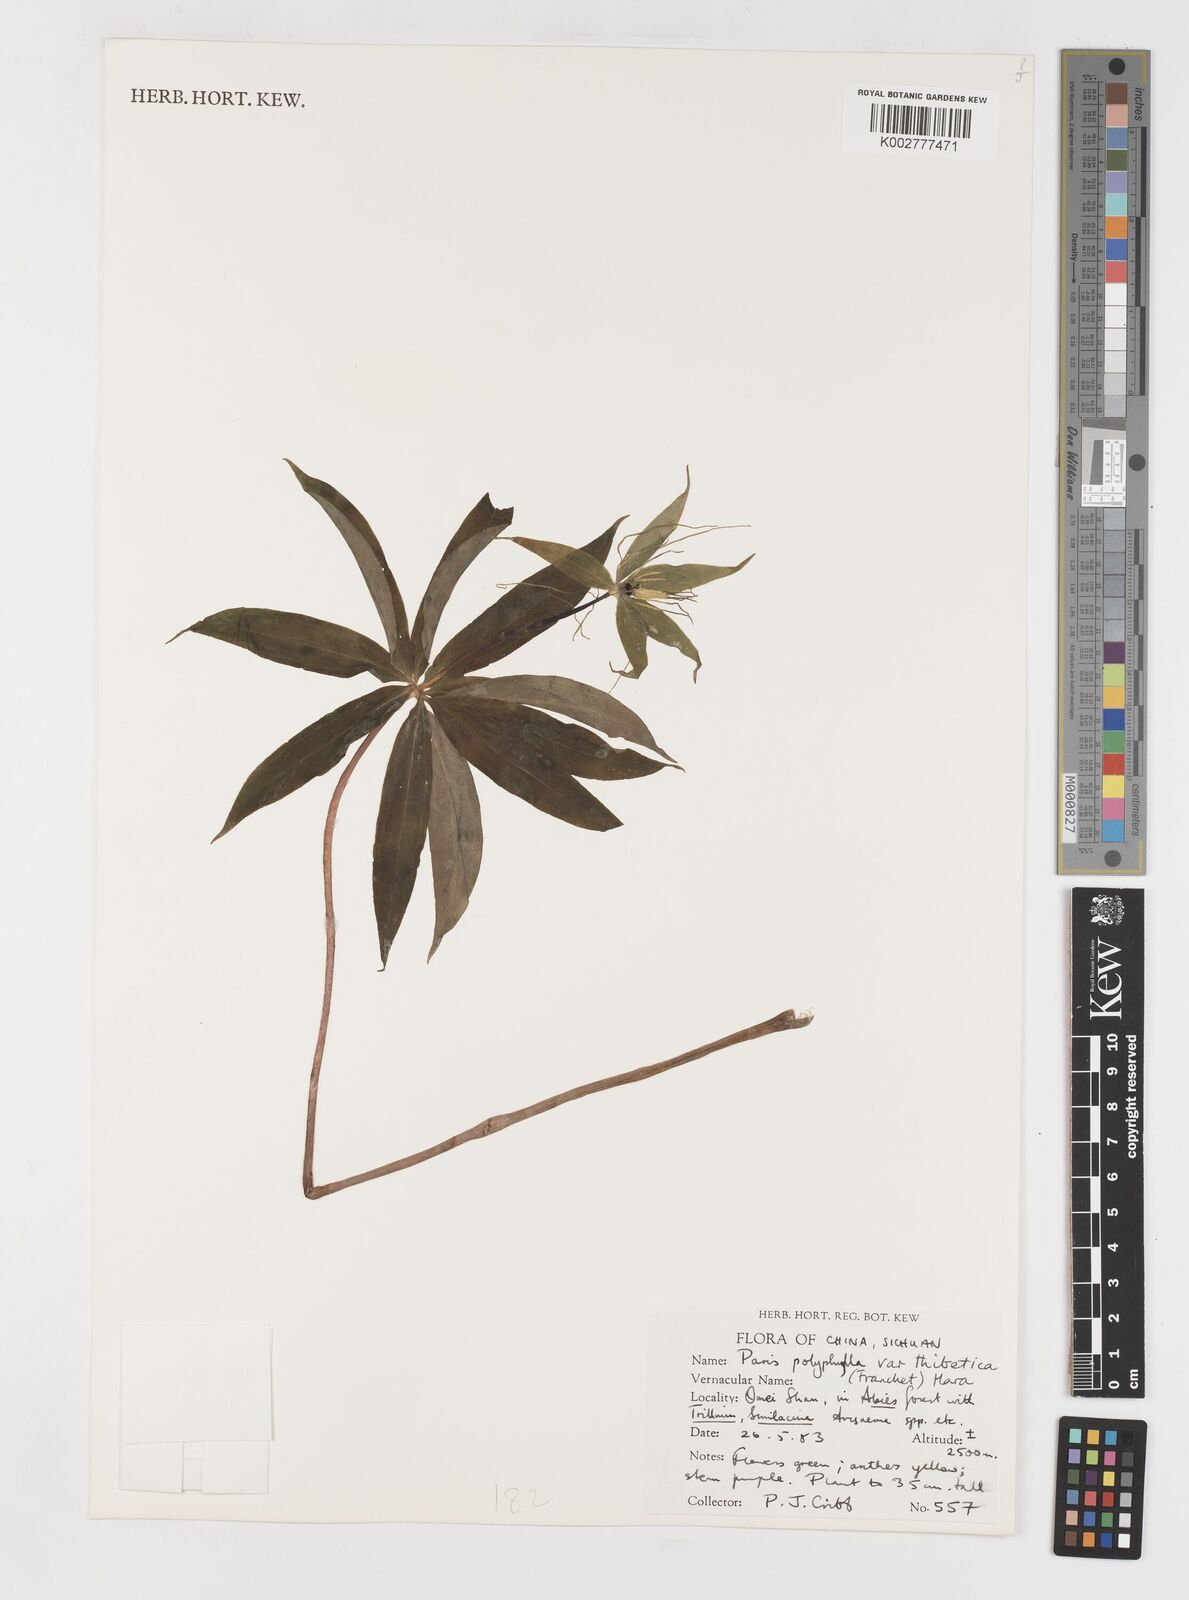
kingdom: Plantae
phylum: Tracheophyta
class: Liliopsida
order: Liliales
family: Melanthiaceae
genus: Paris
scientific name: Paris thibetica
